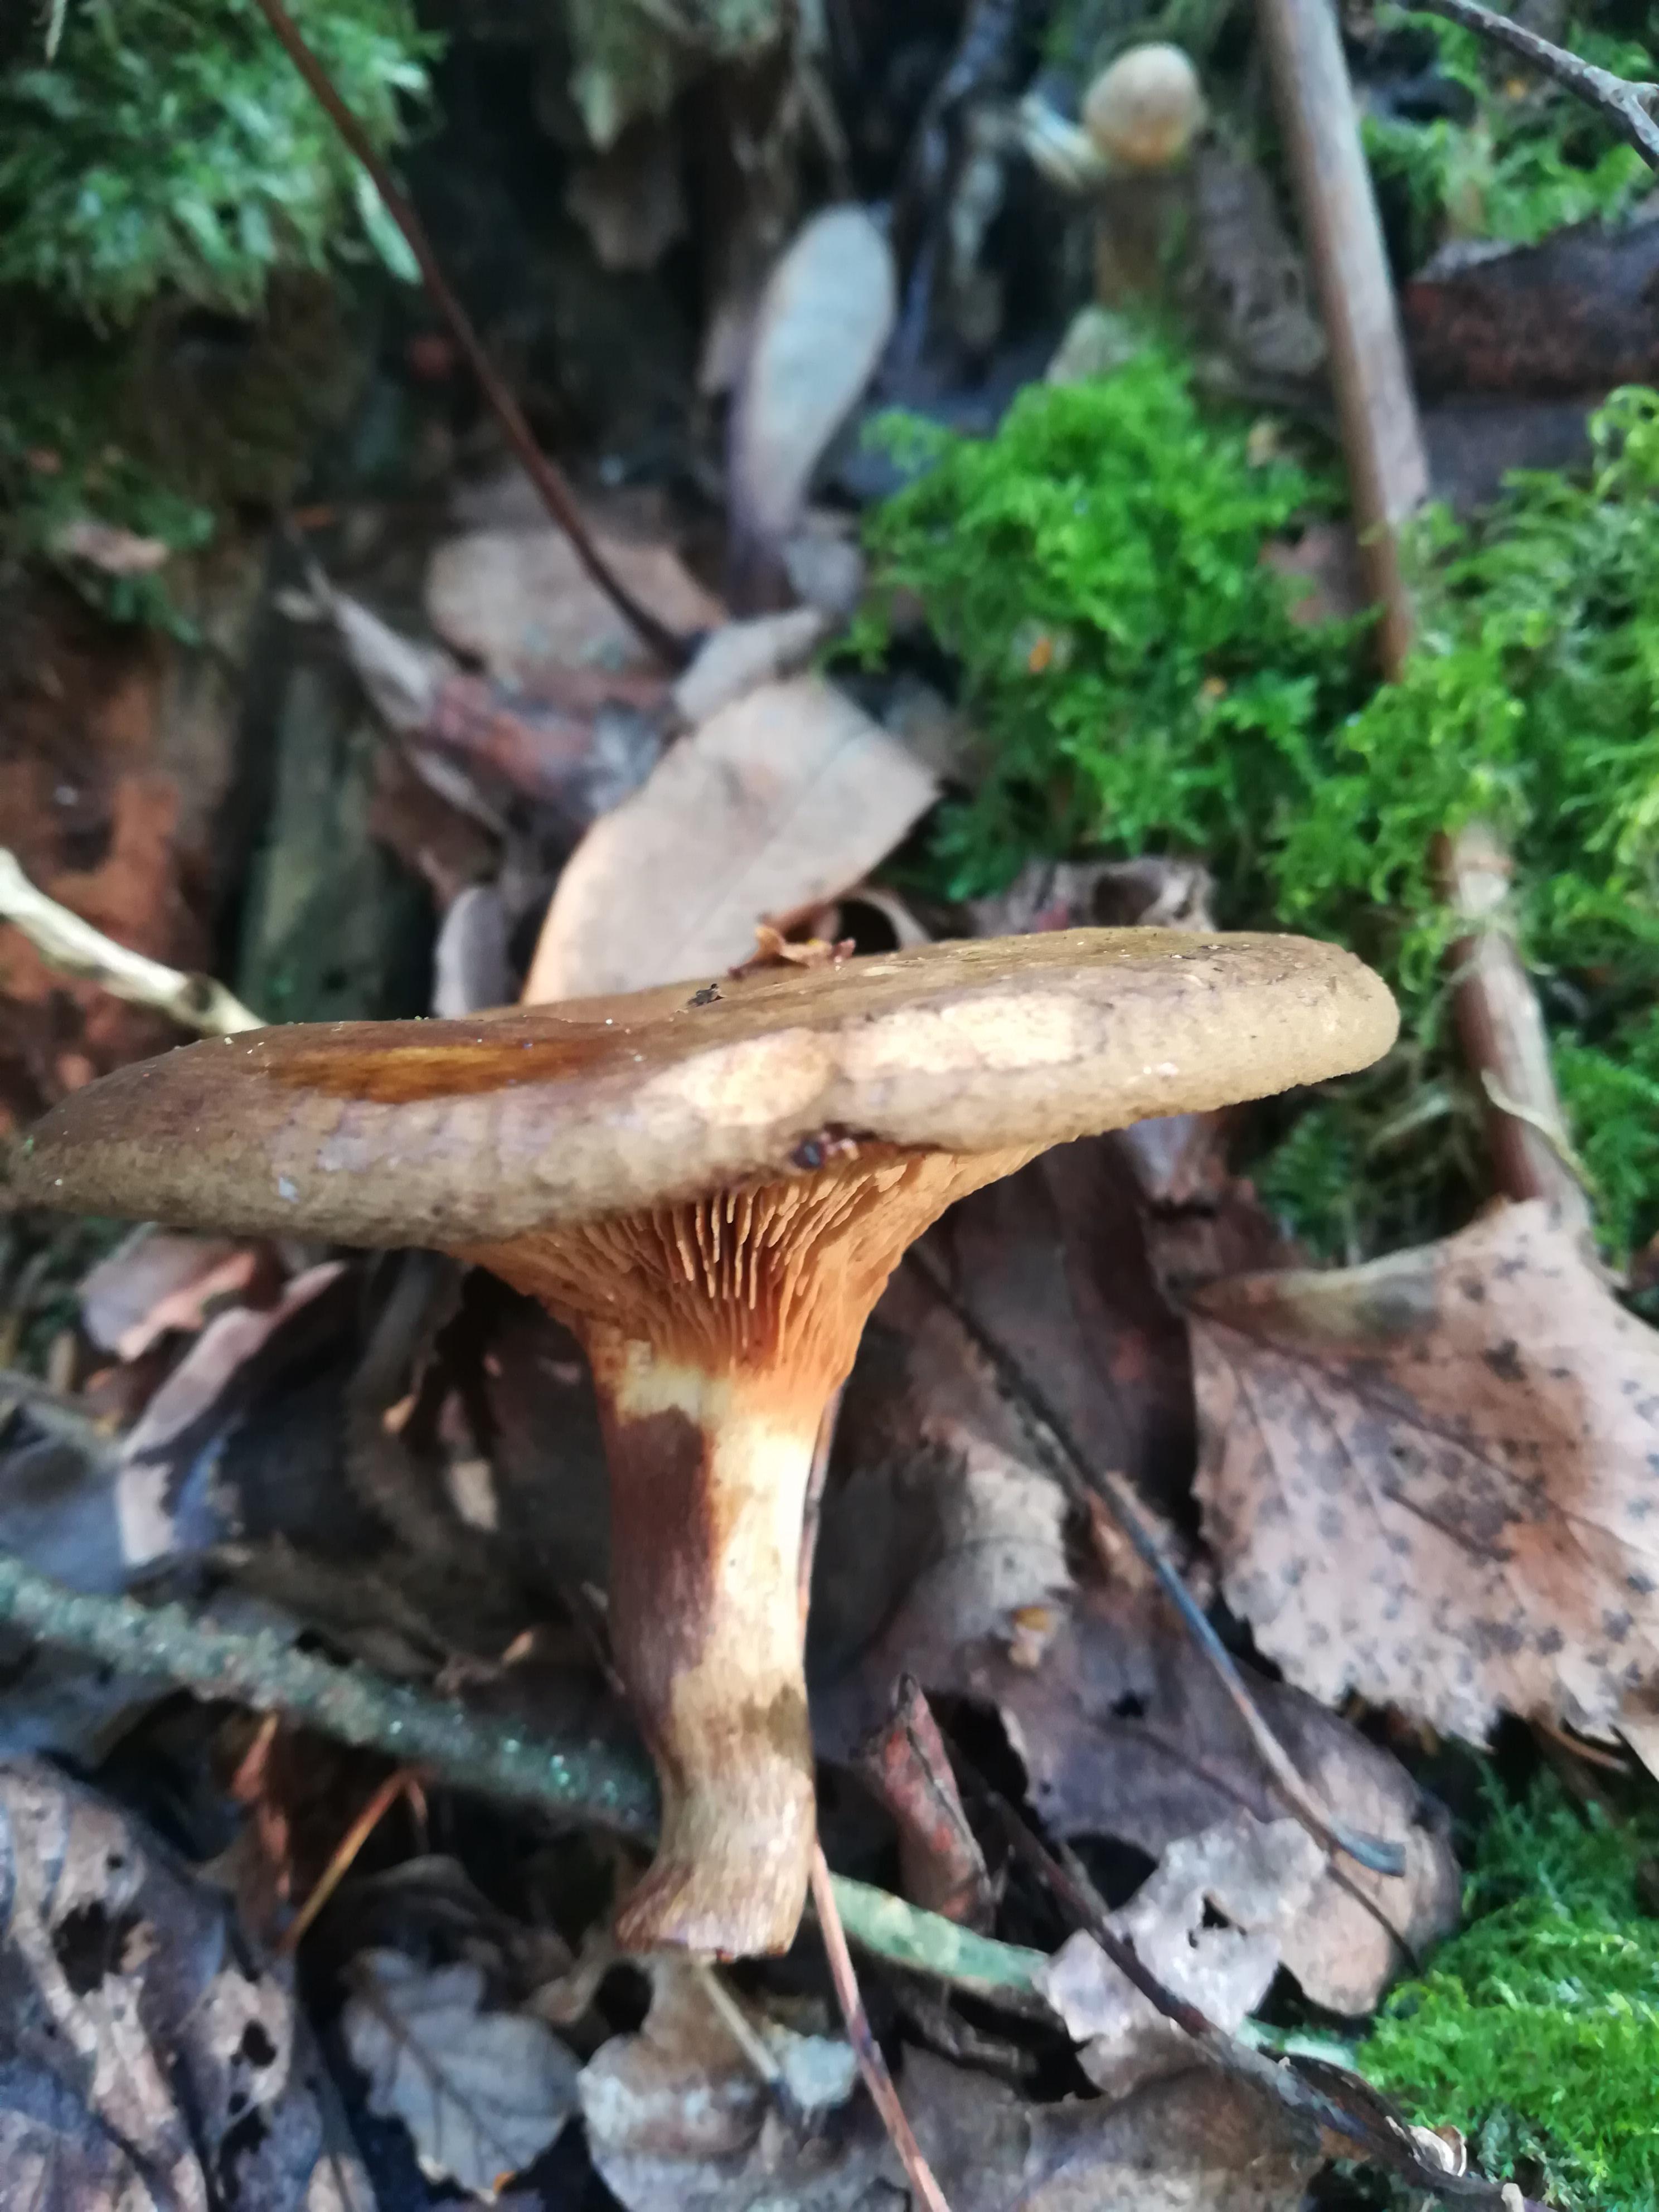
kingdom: Fungi
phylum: Basidiomycota
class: Agaricomycetes
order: Boletales
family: Paxillaceae
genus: Paxillus
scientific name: Paxillus involutus
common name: almindelig netbladhat
